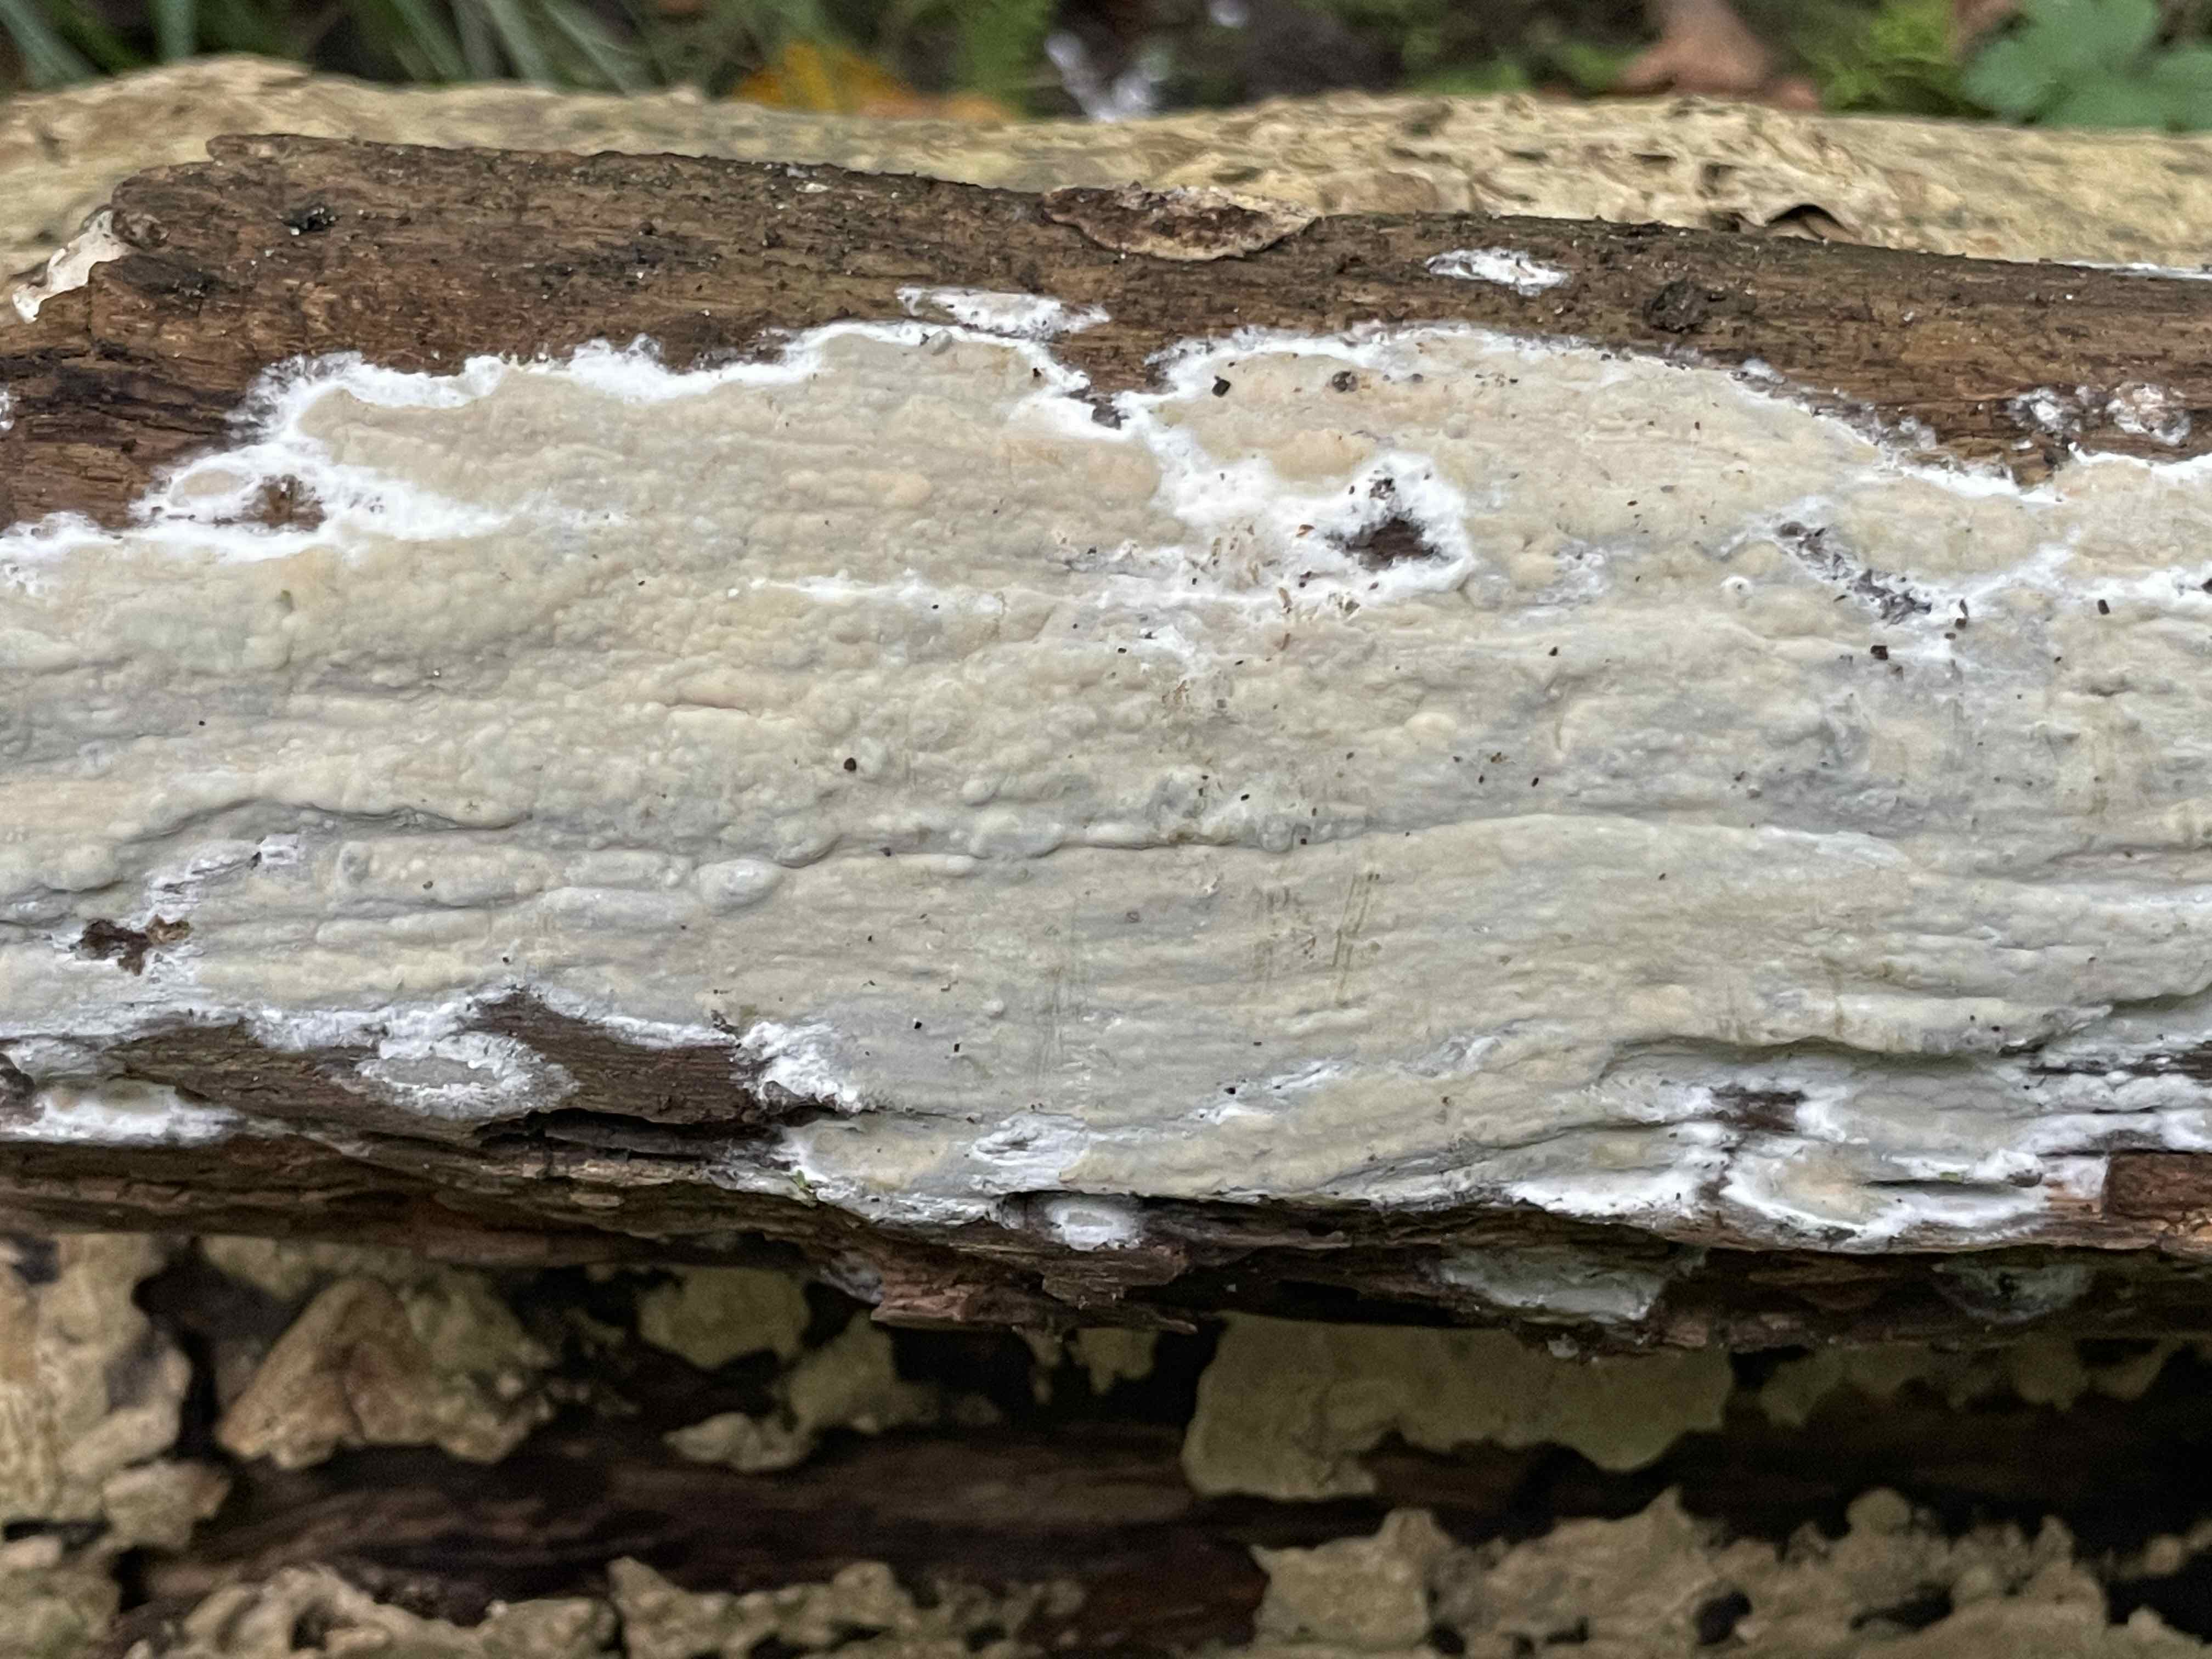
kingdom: Fungi
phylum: Basidiomycota
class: Agaricomycetes
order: Russulales
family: Peniophoraceae
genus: Scytinostroma
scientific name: Scytinostroma hemidichophyticum
